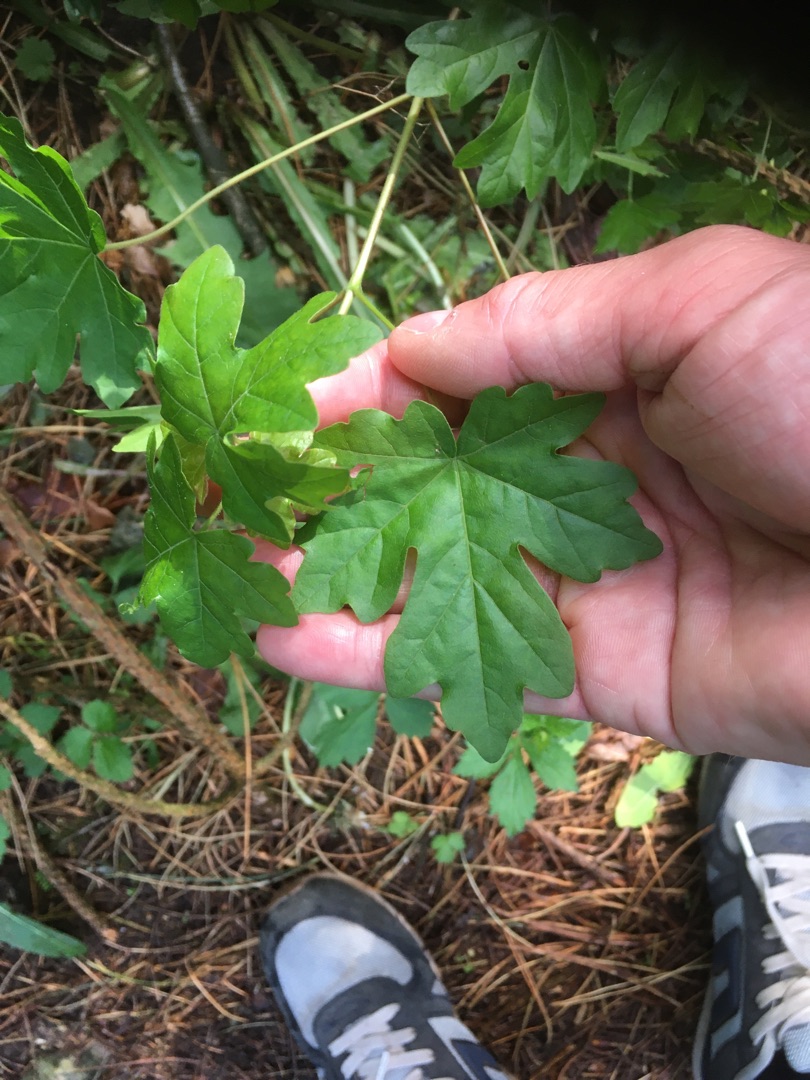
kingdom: Plantae
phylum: Tracheophyta
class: Magnoliopsida
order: Sapindales
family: Sapindaceae
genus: Acer
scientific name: Acer campestre
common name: Navr
